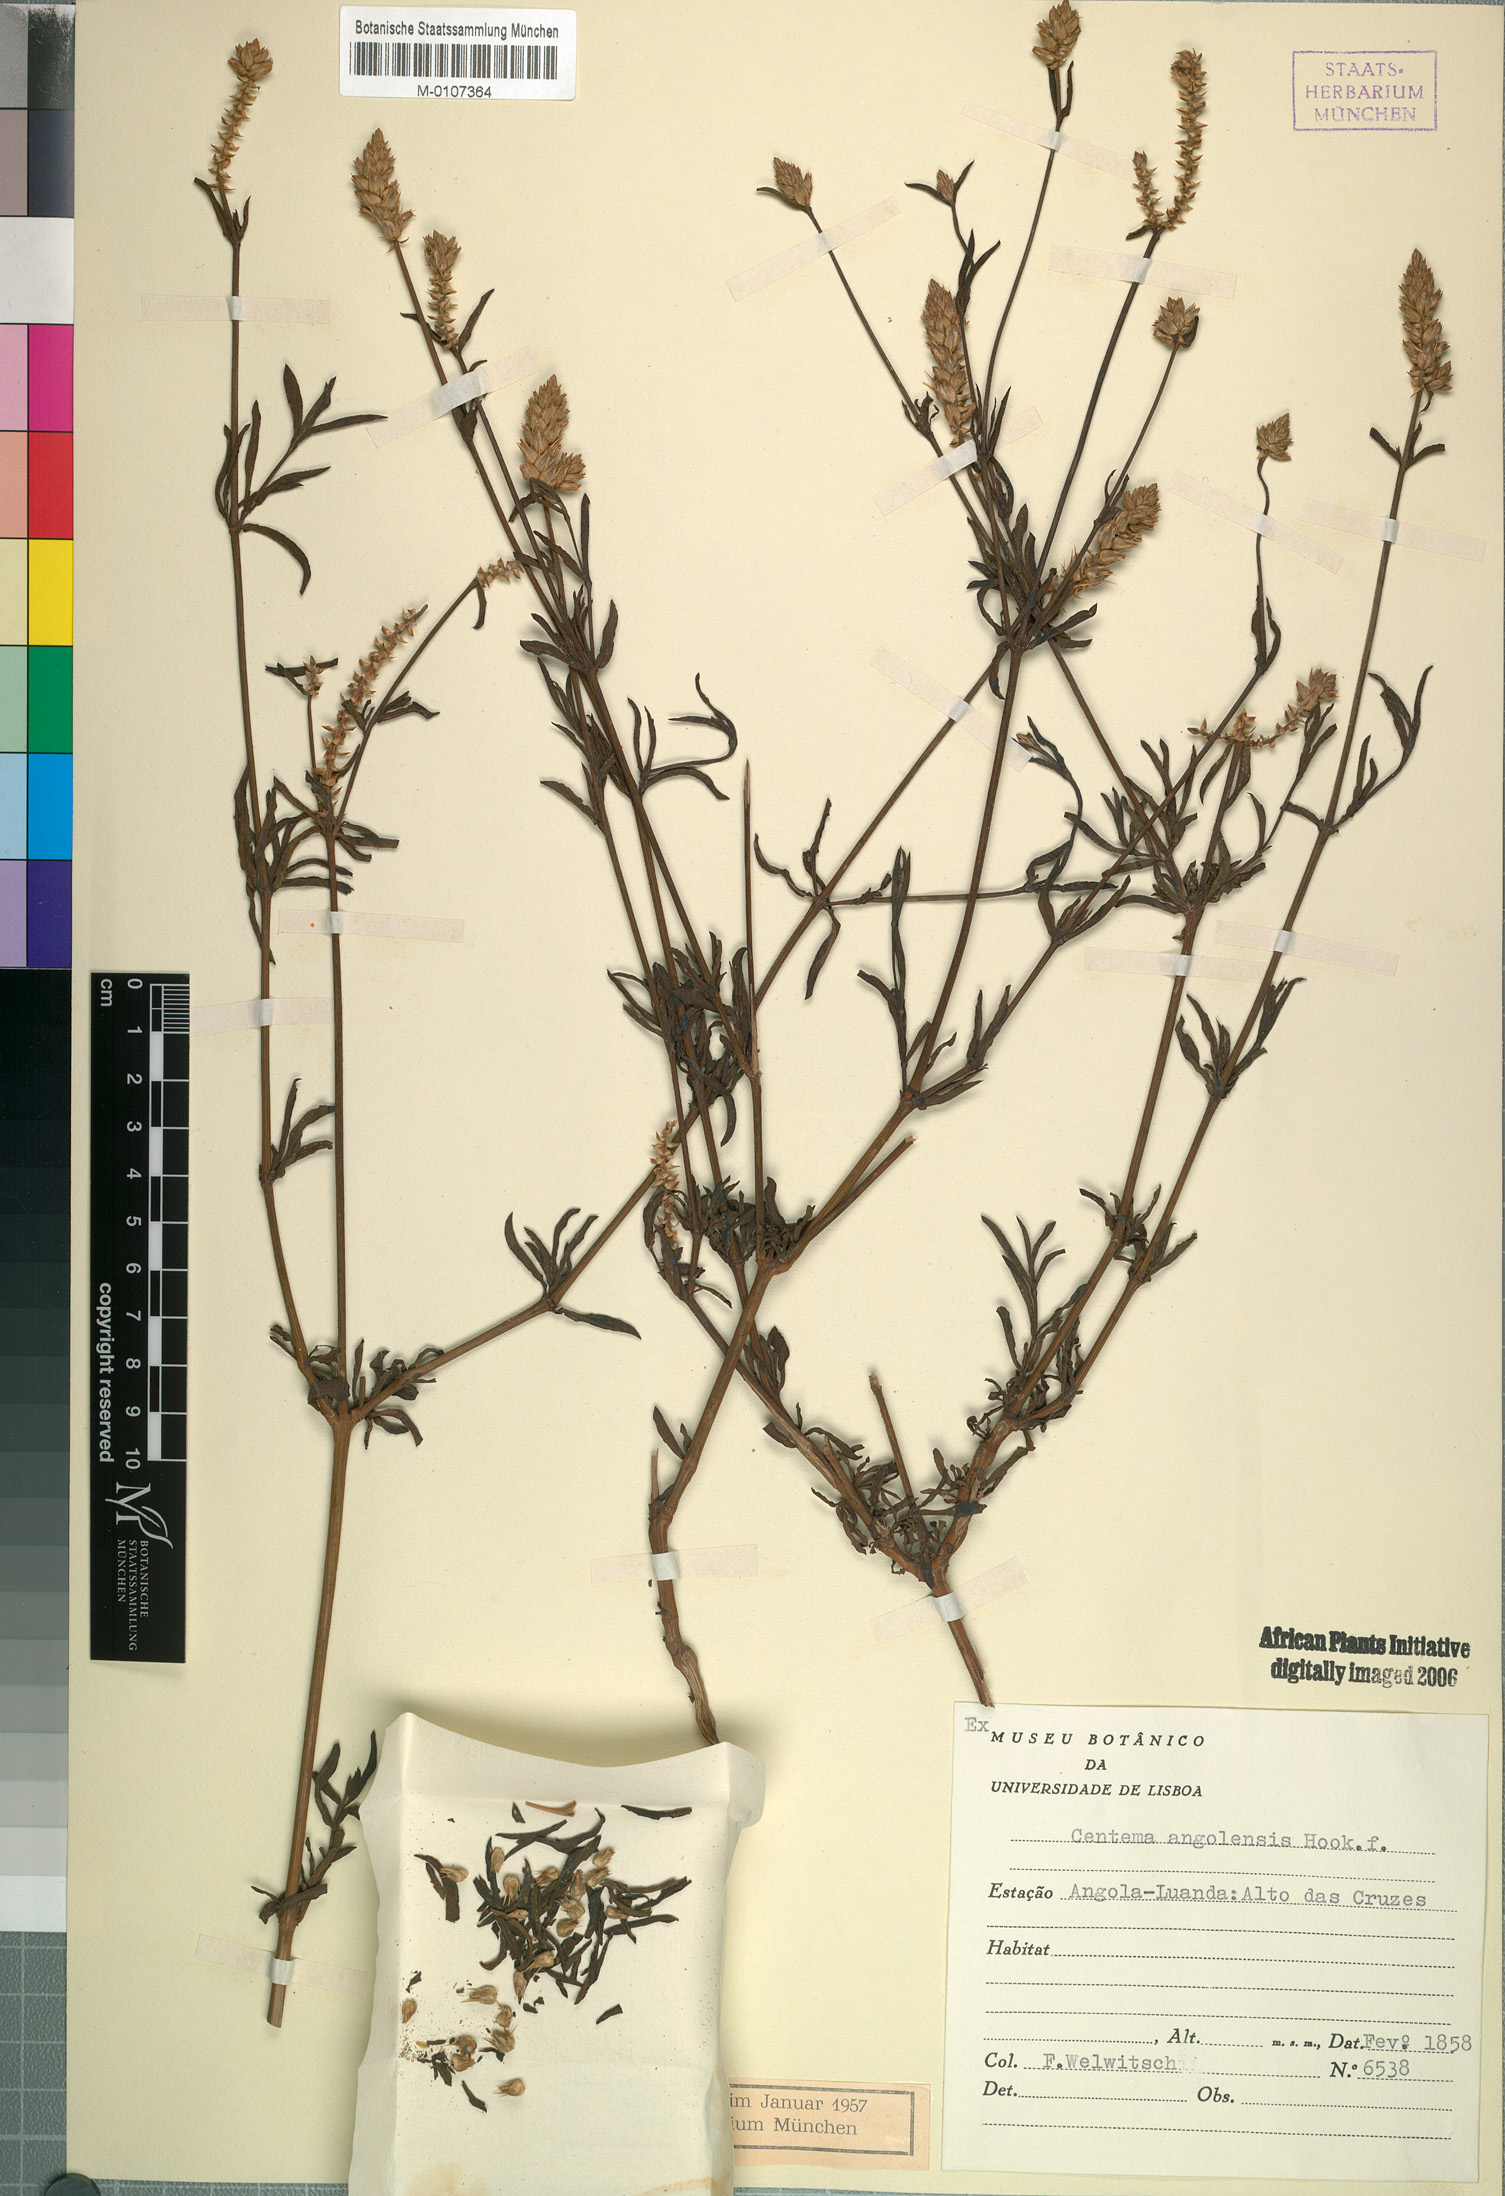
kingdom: Plantae
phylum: Tracheophyta
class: Magnoliopsida
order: Caryophyllales
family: Amaranthaceae
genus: Centema
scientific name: Centema angolensis
